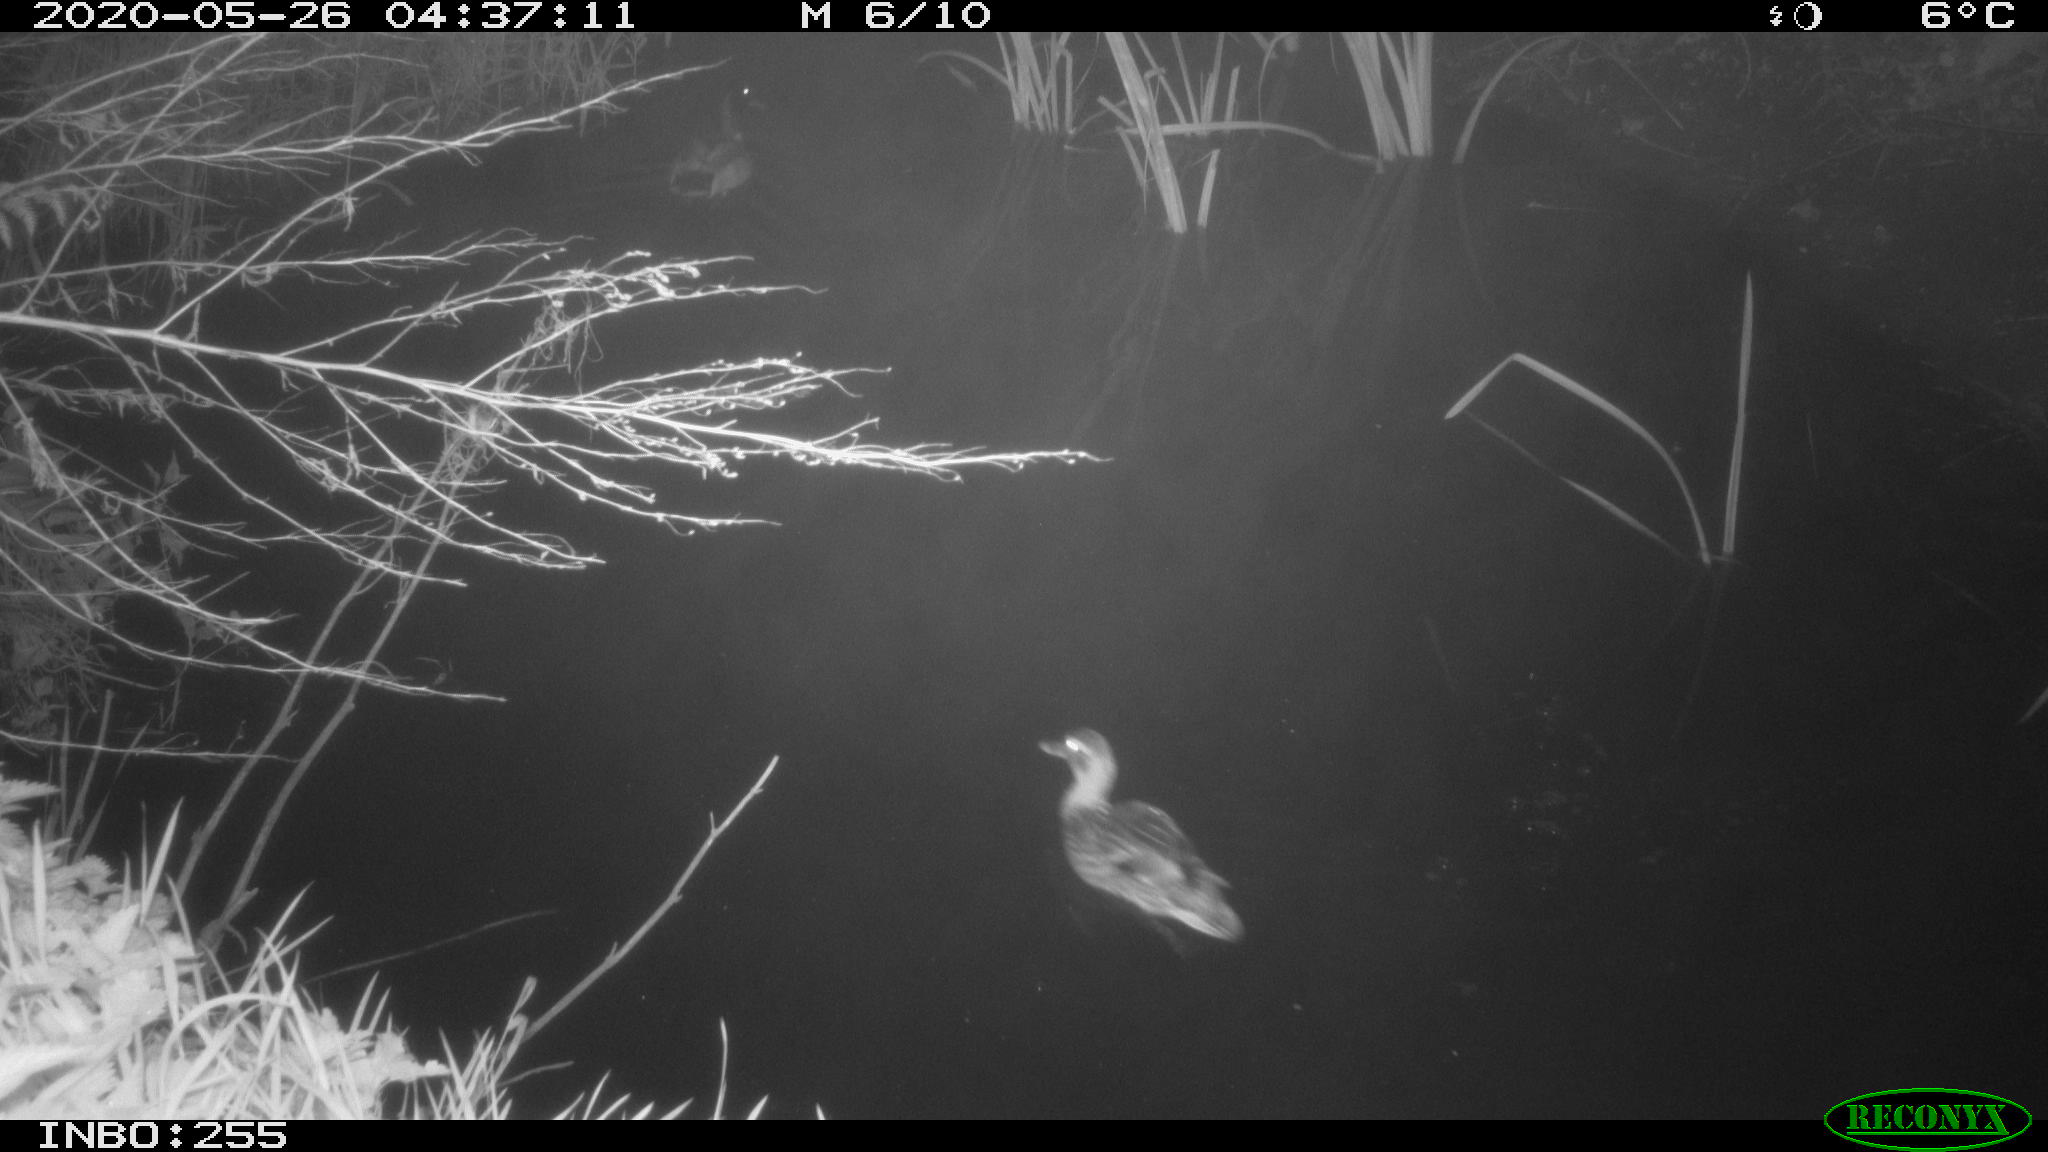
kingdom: Animalia
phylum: Chordata
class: Aves
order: Anseriformes
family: Anatidae
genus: Anas
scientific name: Anas platyrhynchos
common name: Mallard
